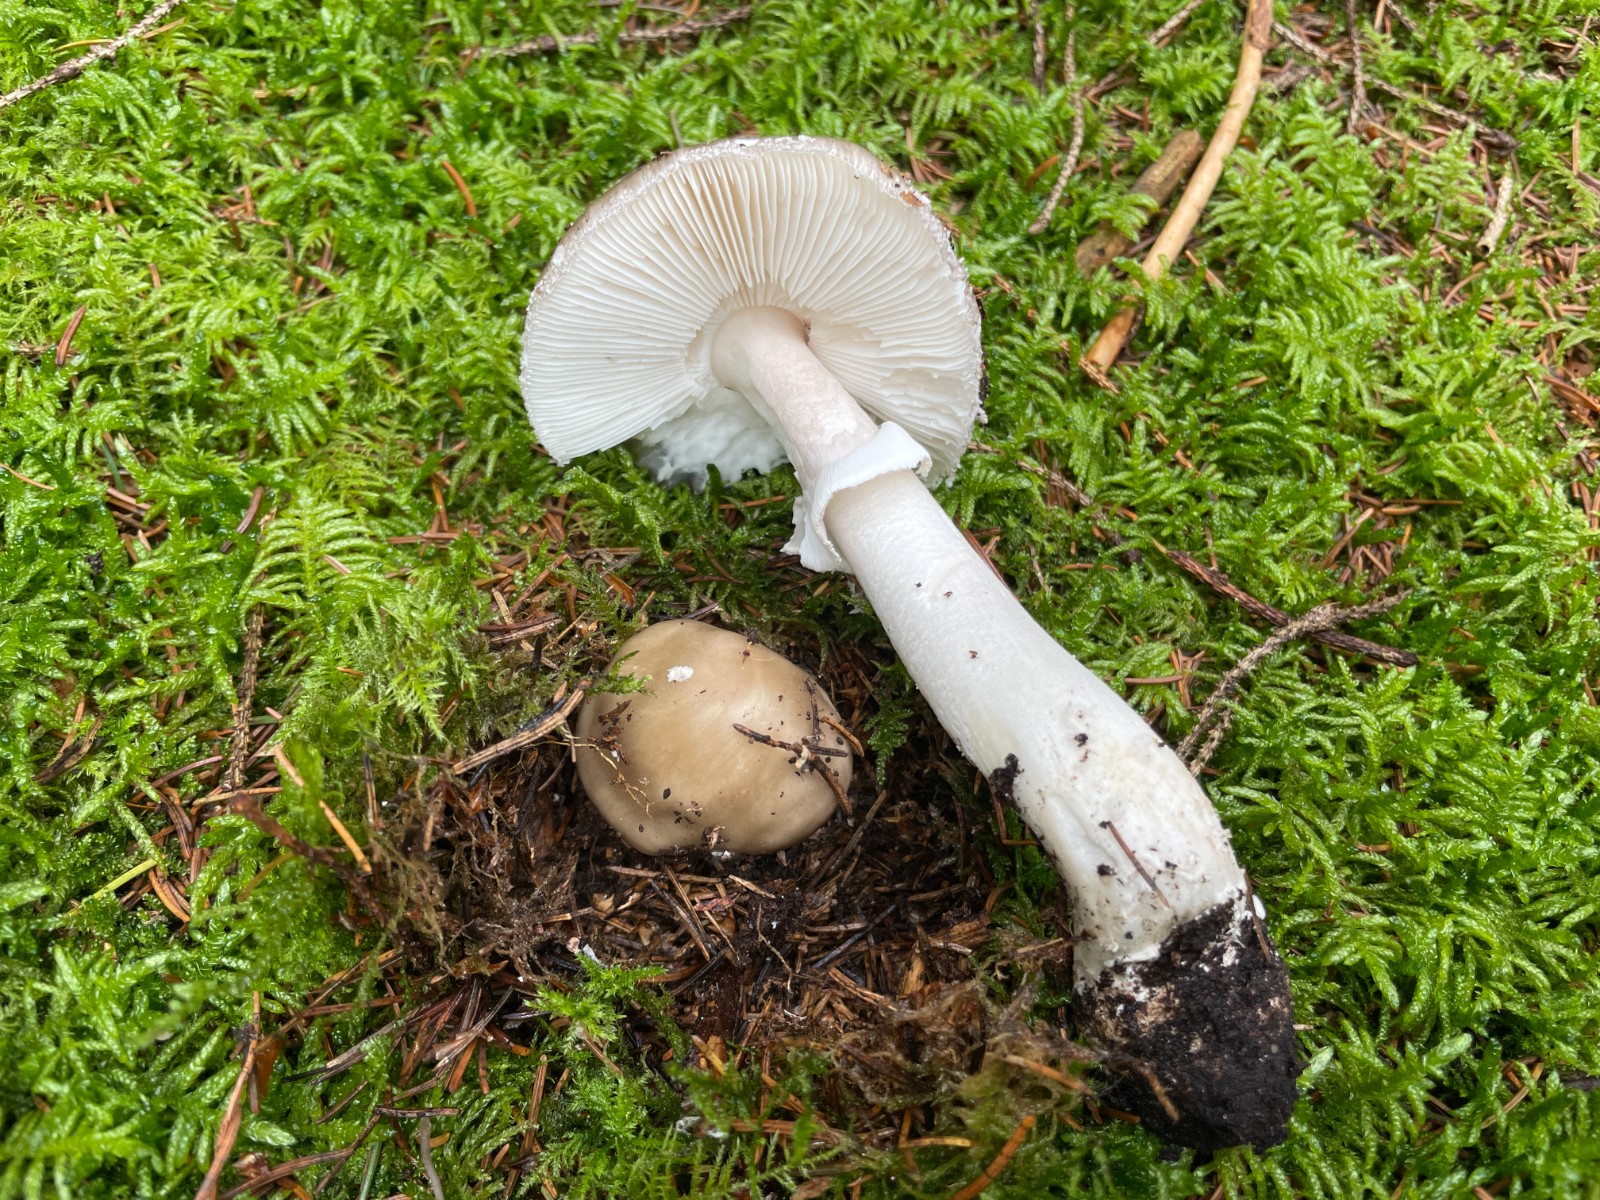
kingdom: Fungi
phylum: Basidiomycota
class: Agaricomycetes
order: Agaricales
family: Amanitaceae
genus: Amanita
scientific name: Amanita porphyria
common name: porfyr-fluesvamp
